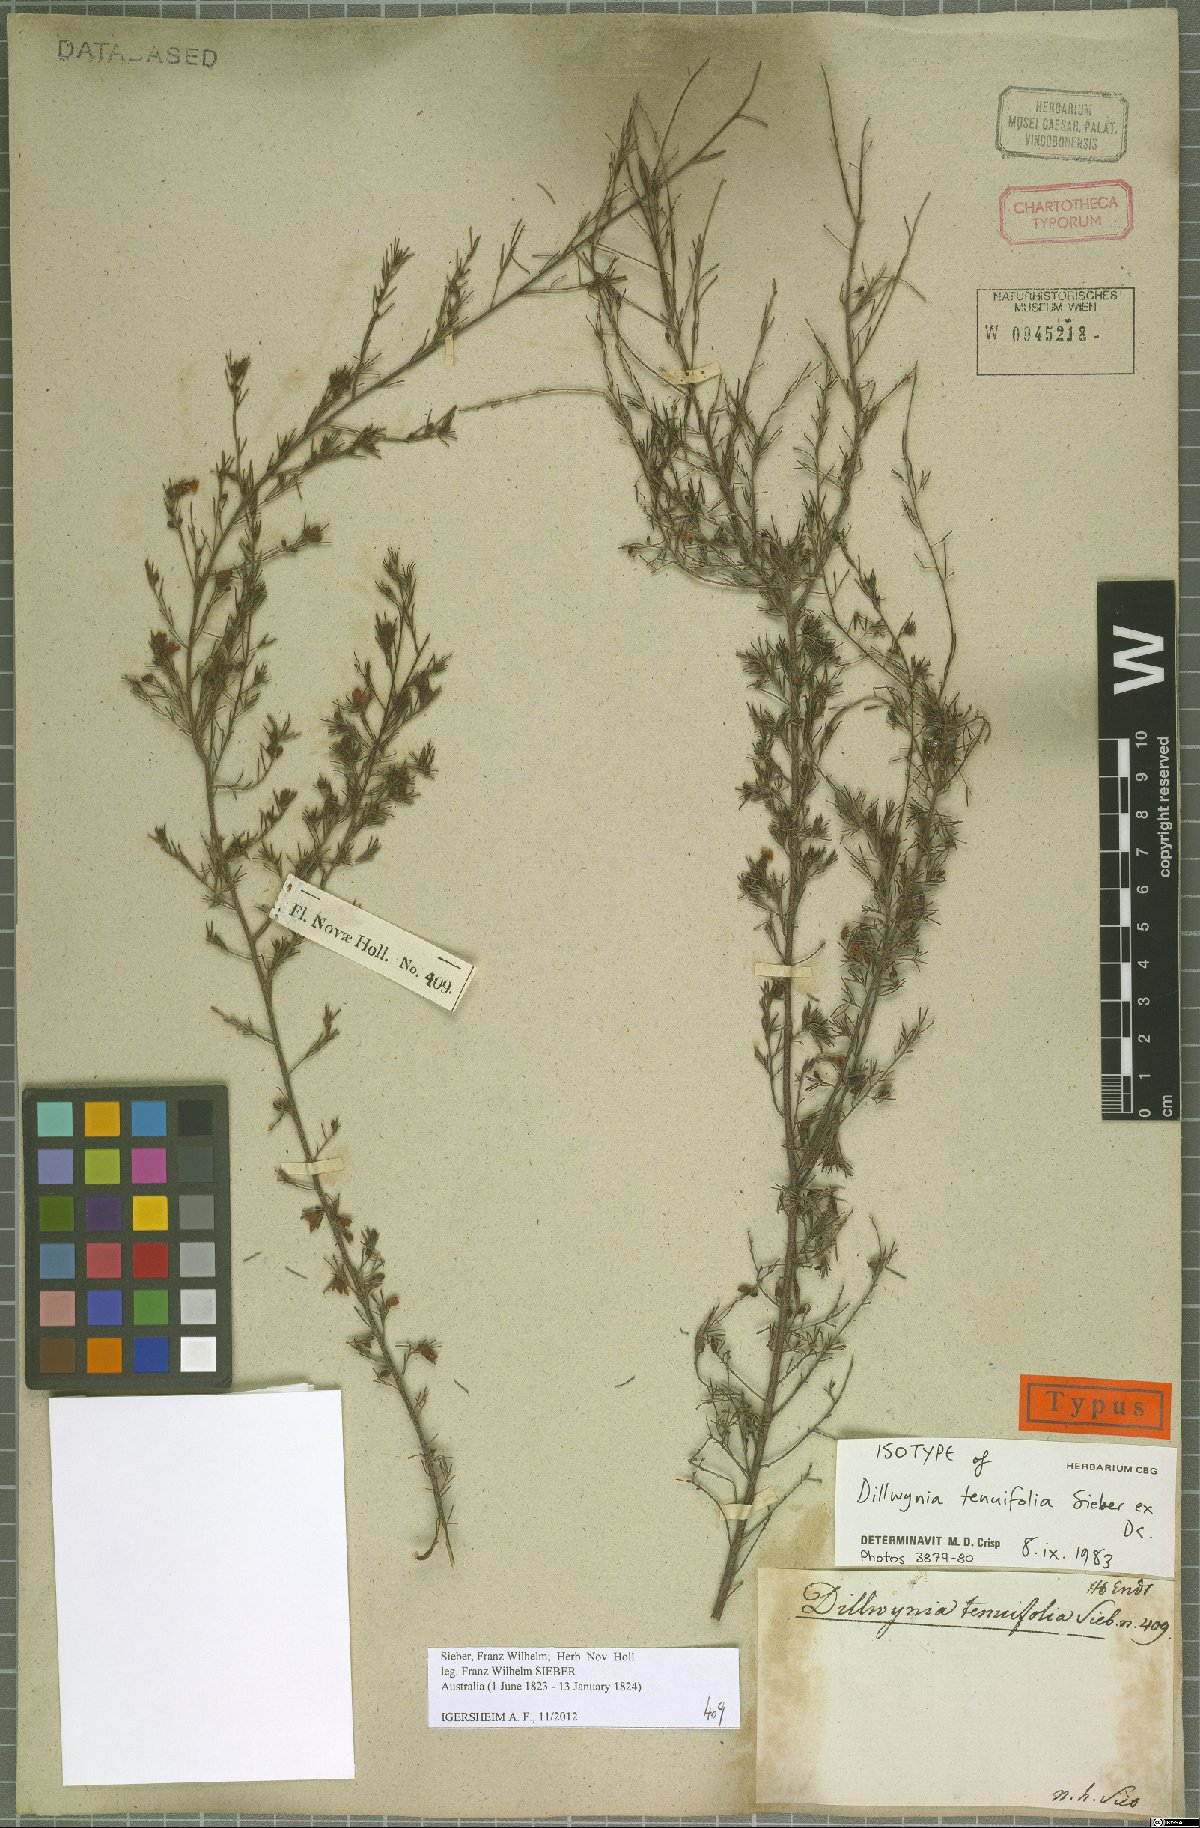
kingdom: Plantae
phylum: Tracheophyta
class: Magnoliopsida
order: Fabales
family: Fabaceae
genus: Dillwynia
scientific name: Dillwynia tenuifolia
